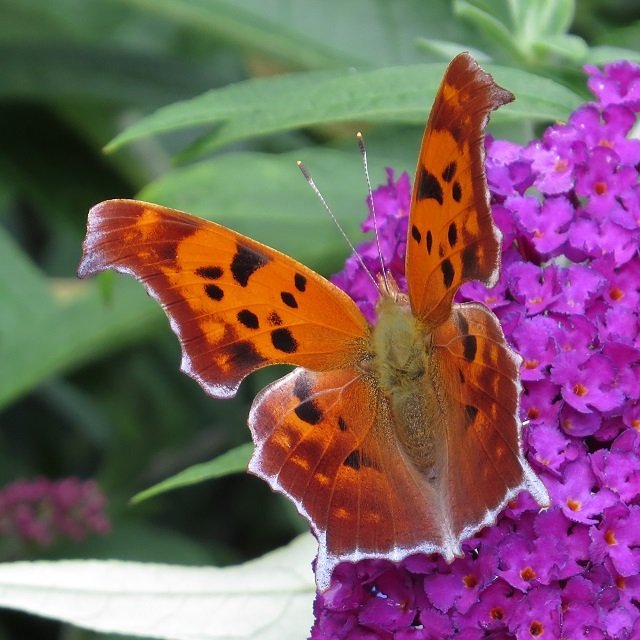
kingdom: Animalia
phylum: Arthropoda
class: Insecta
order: Lepidoptera
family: Nymphalidae
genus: Polygonia
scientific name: Polygonia interrogationis
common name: Question Mark
